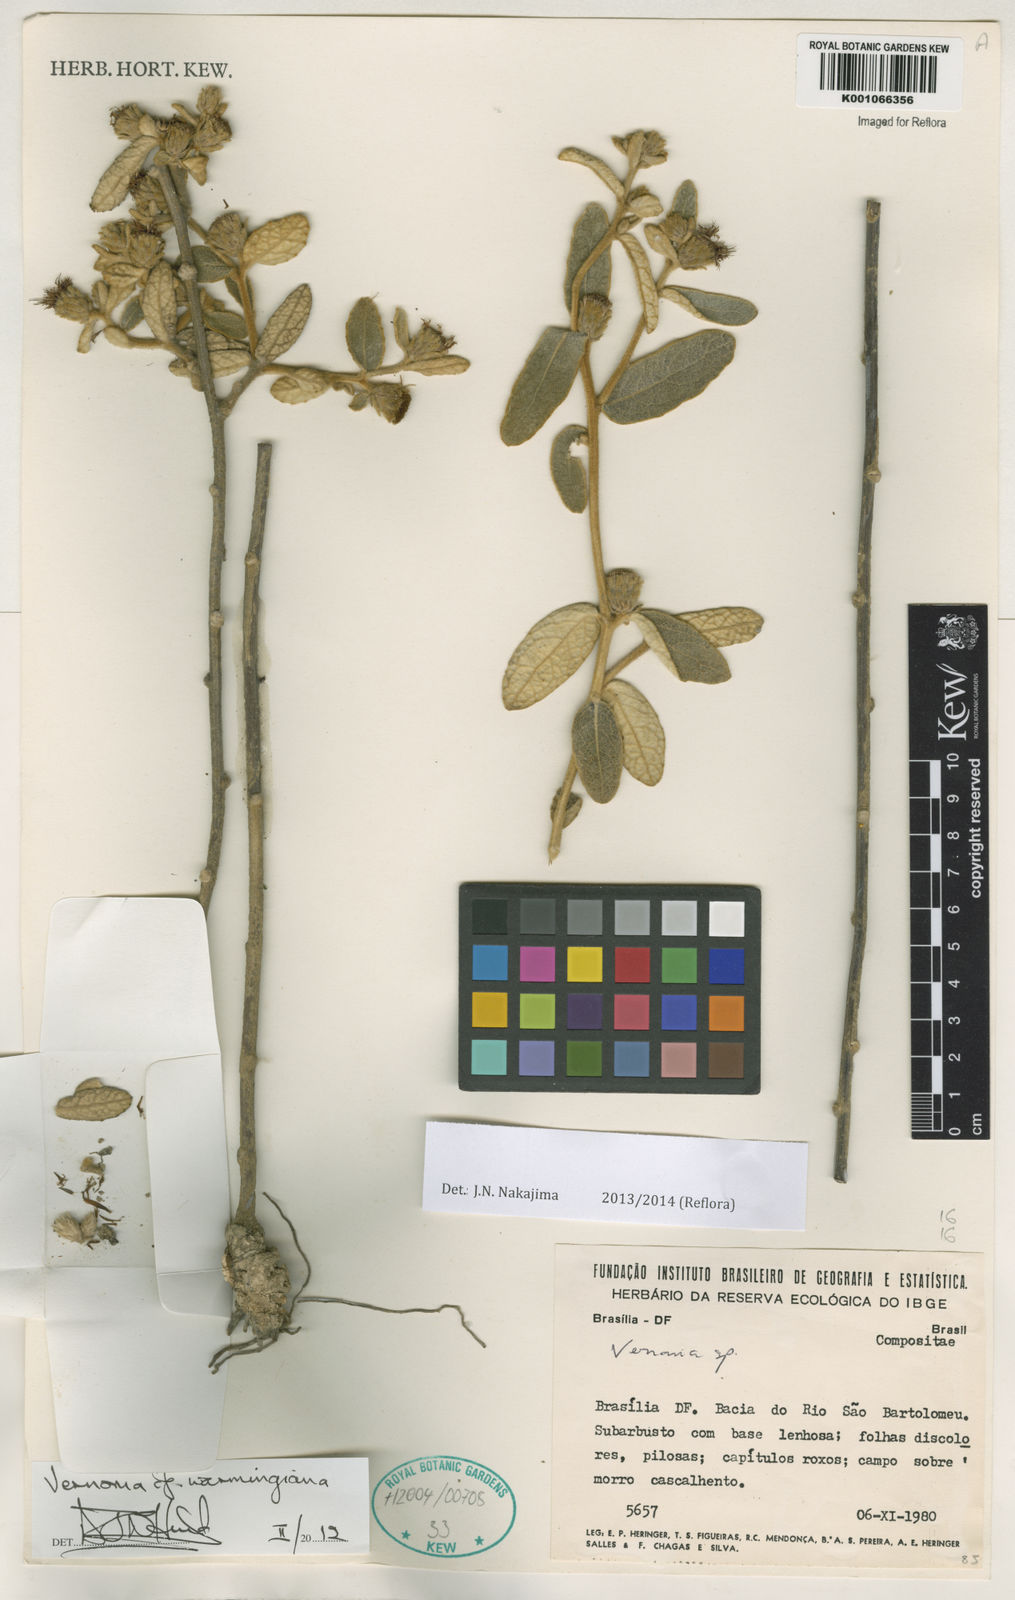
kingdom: Plantae
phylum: Tracheophyta
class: Magnoliopsida
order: Asterales
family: Asteraceae
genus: Vernonia
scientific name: Vernonia
